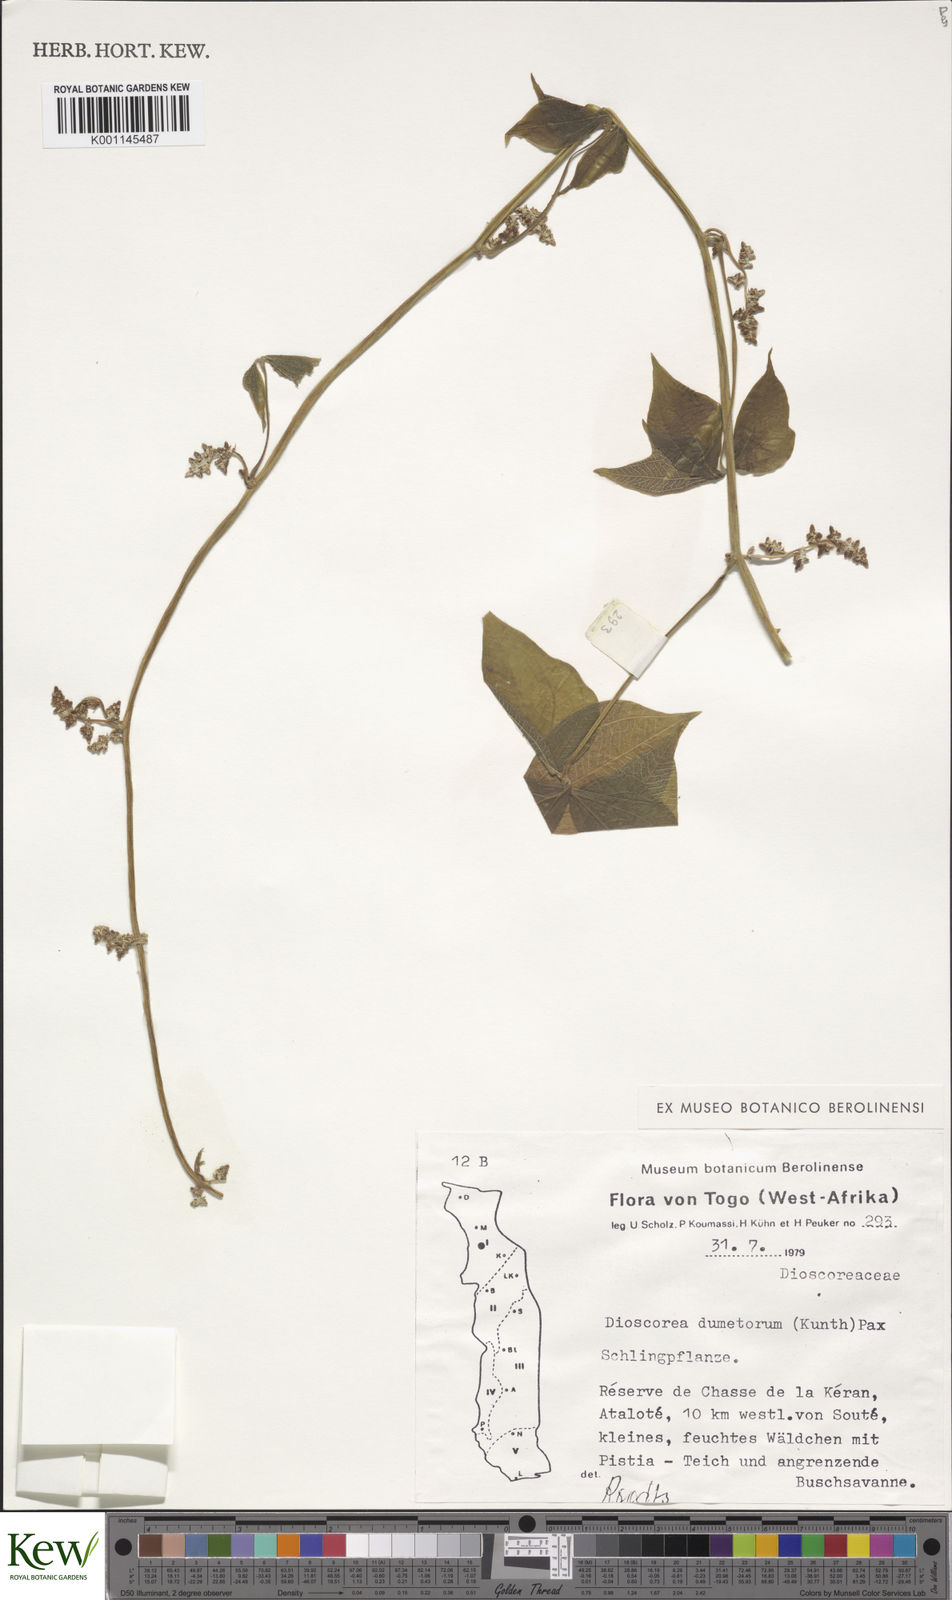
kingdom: Plantae
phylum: Tracheophyta
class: Liliopsida
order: Dioscoreales
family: Dioscoreaceae
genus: Dioscorea
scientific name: Dioscorea dumetorum
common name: African bitter yam
